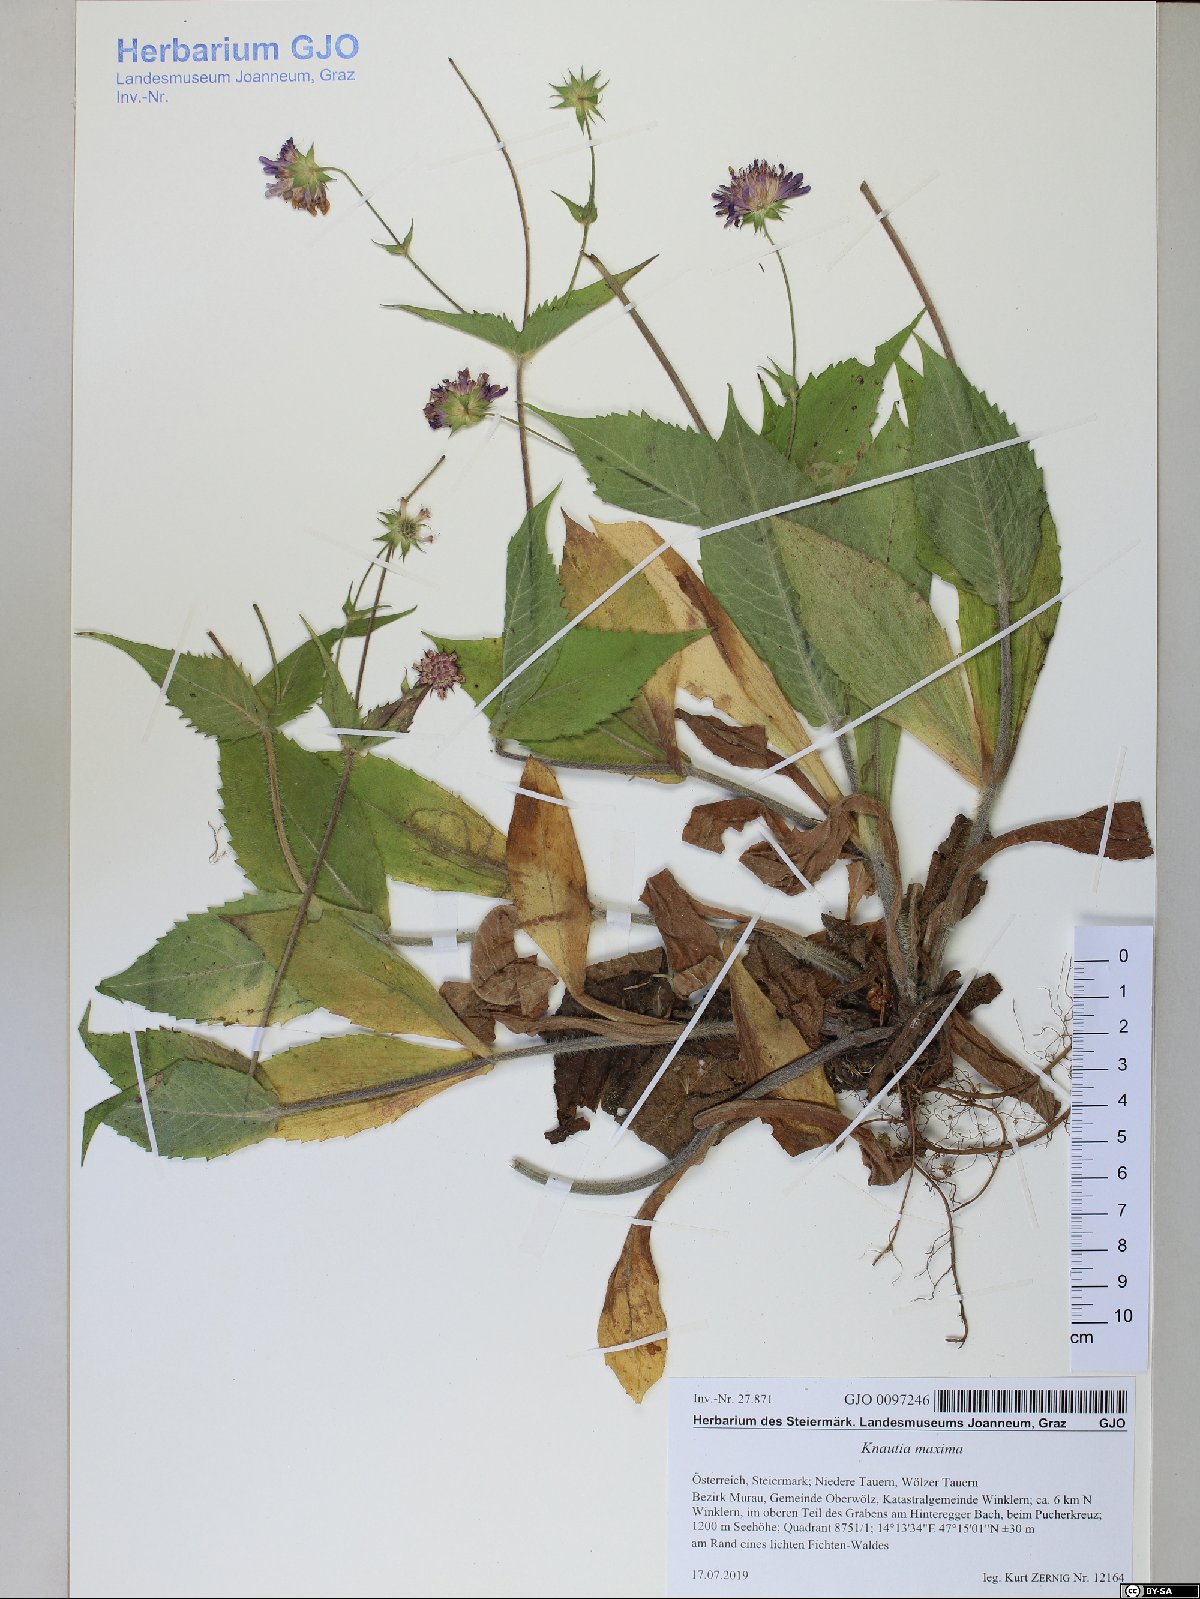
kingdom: Plantae
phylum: Tracheophyta
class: Magnoliopsida
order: Dipsacales
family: Caprifoliaceae
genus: Knautia
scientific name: Knautia dipsacifolia
